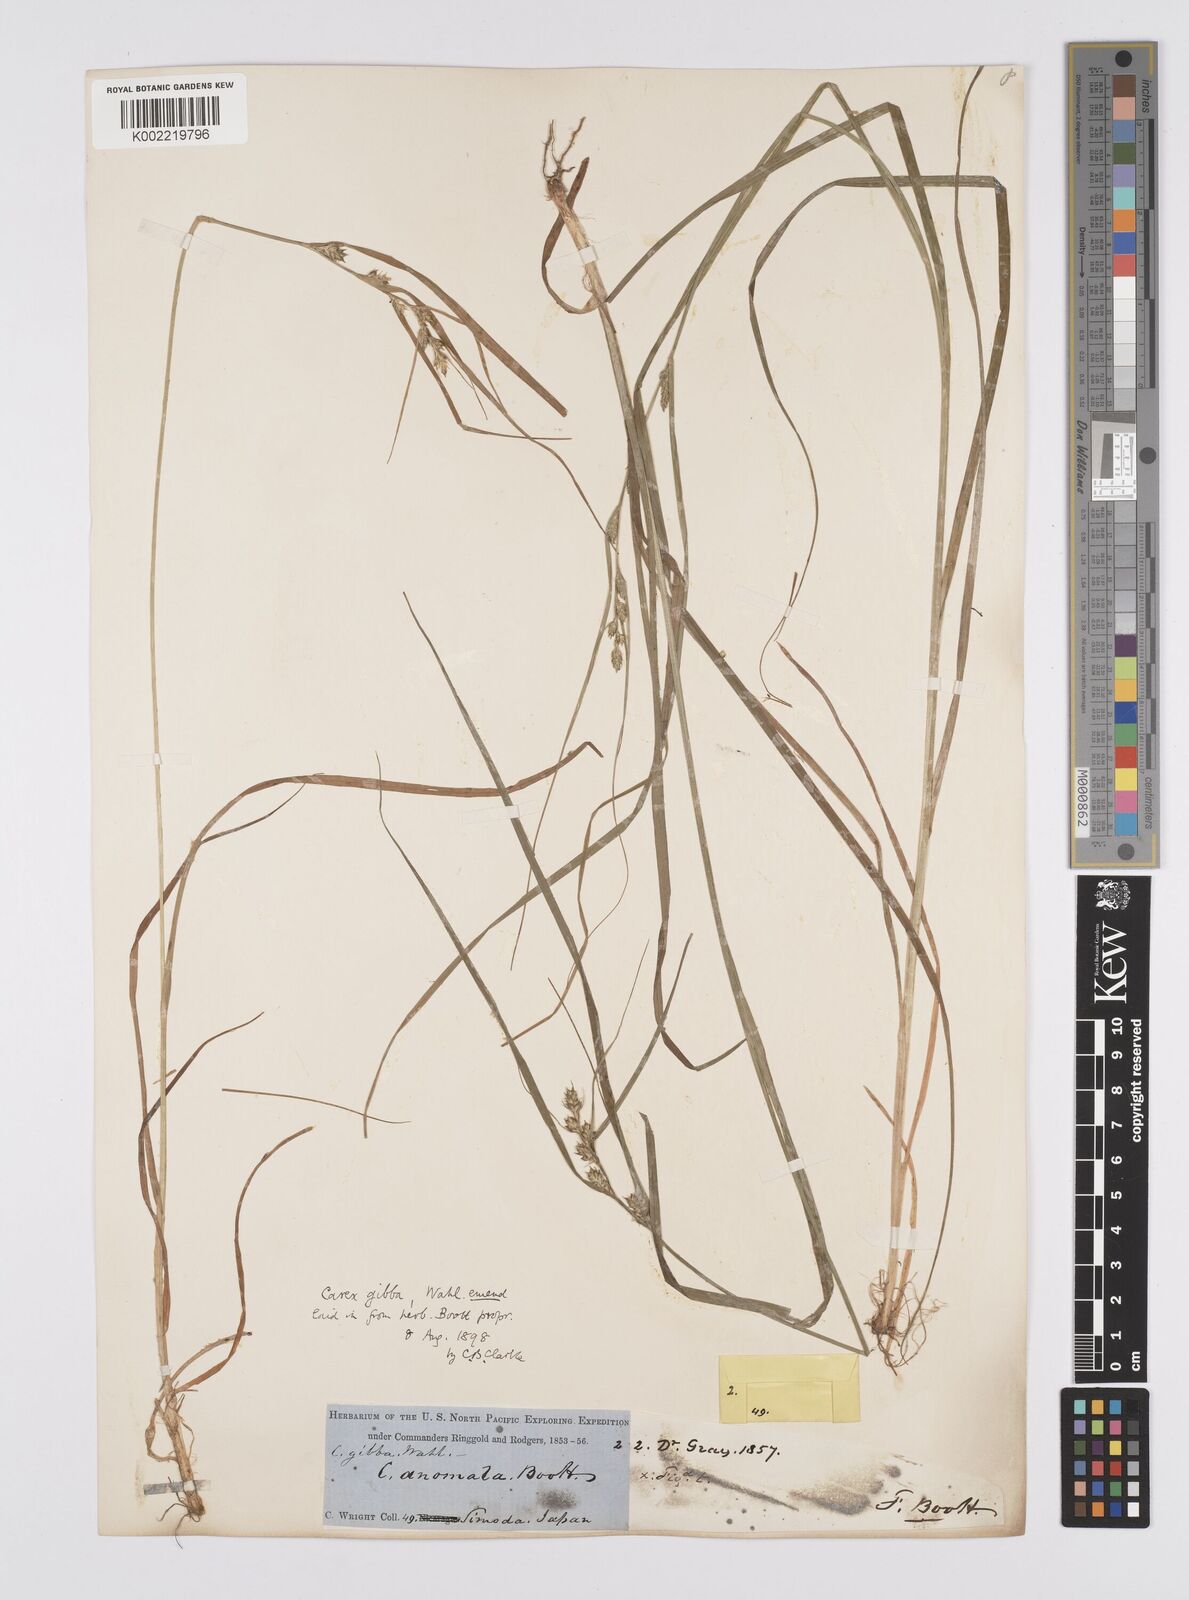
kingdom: Plantae
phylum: Tracheophyta
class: Liliopsida
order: Poales
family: Cyperaceae
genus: Carex
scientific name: Carex gibba
